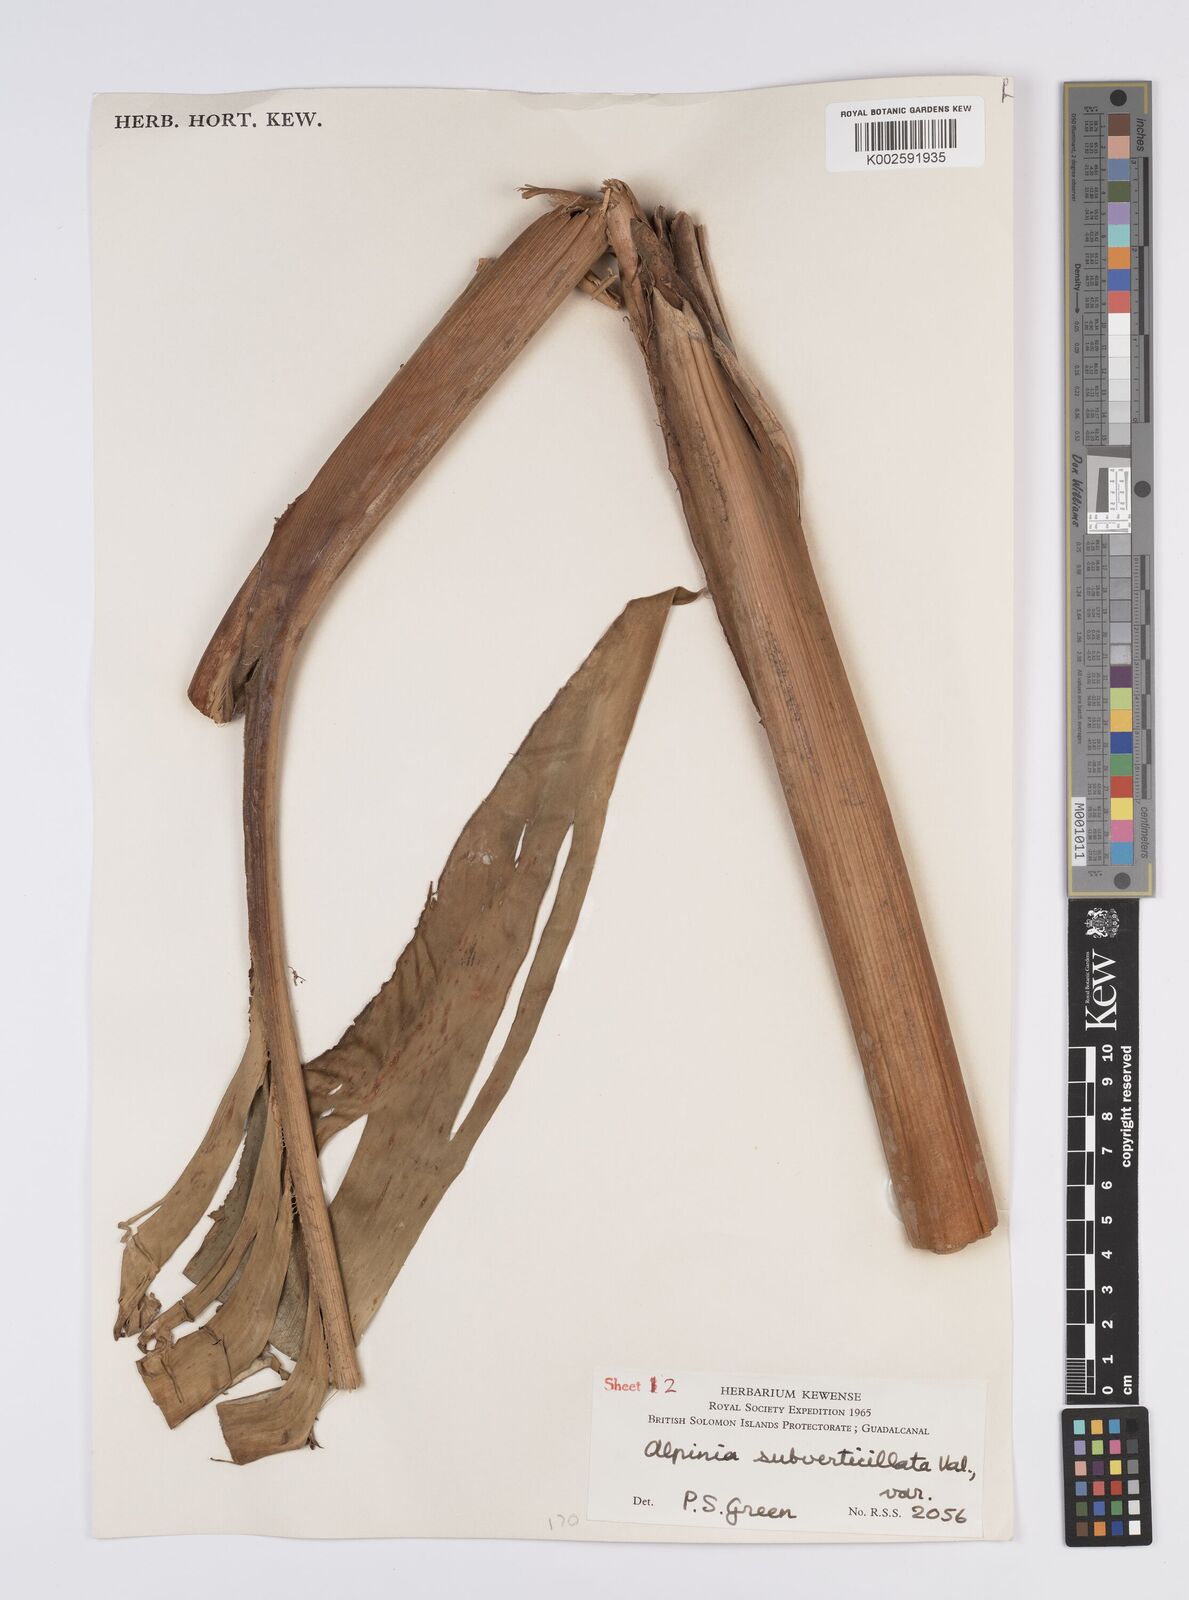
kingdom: Plantae
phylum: Tracheophyta
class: Liliopsida
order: Zingiberales
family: Zingiberaceae
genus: Alpinia
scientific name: Alpinia subverticillata
